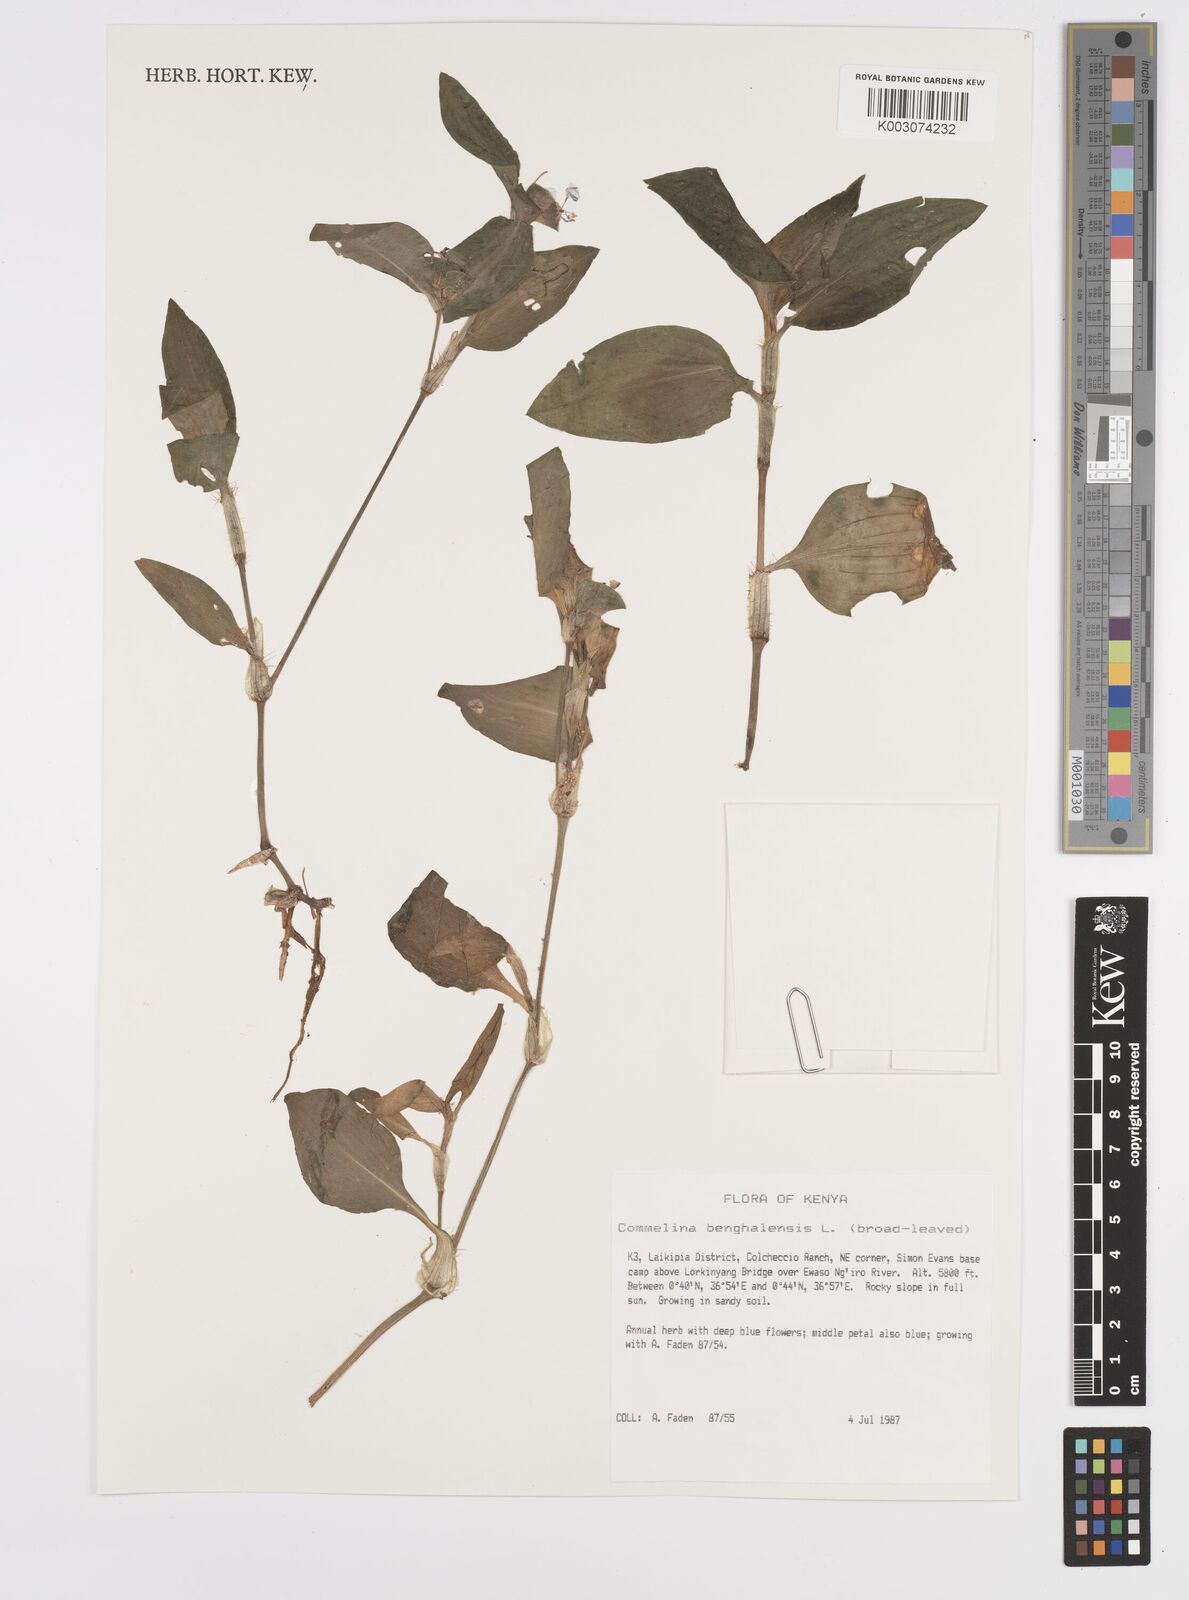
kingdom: Plantae
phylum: Tracheophyta
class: Liliopsida
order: Commelinales
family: Commelinaceae
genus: Commelina
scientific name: Commelina benghalensis
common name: Jio
